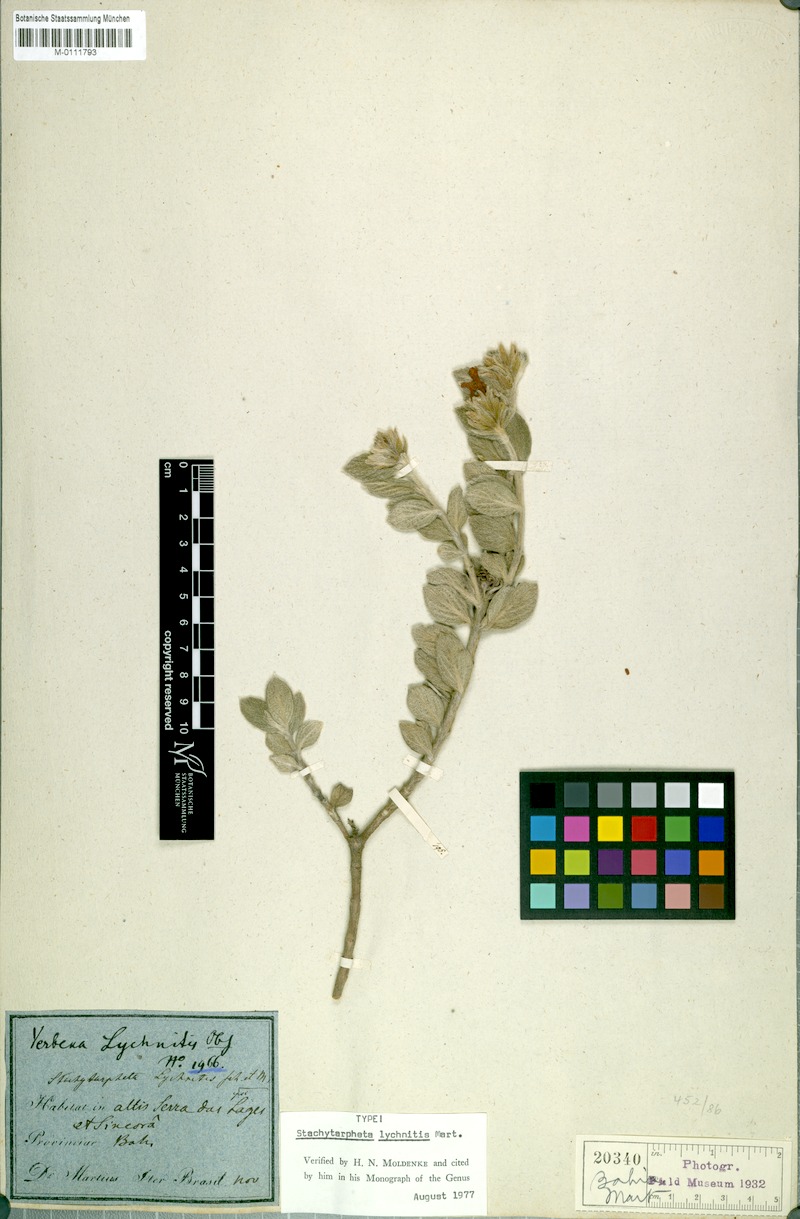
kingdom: Plantae
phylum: Tracheophyta
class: Magnoliopsida
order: Lamiales
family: Verbenaceae
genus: Stachytarpheta
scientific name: Stachytarpheta lychnitis
